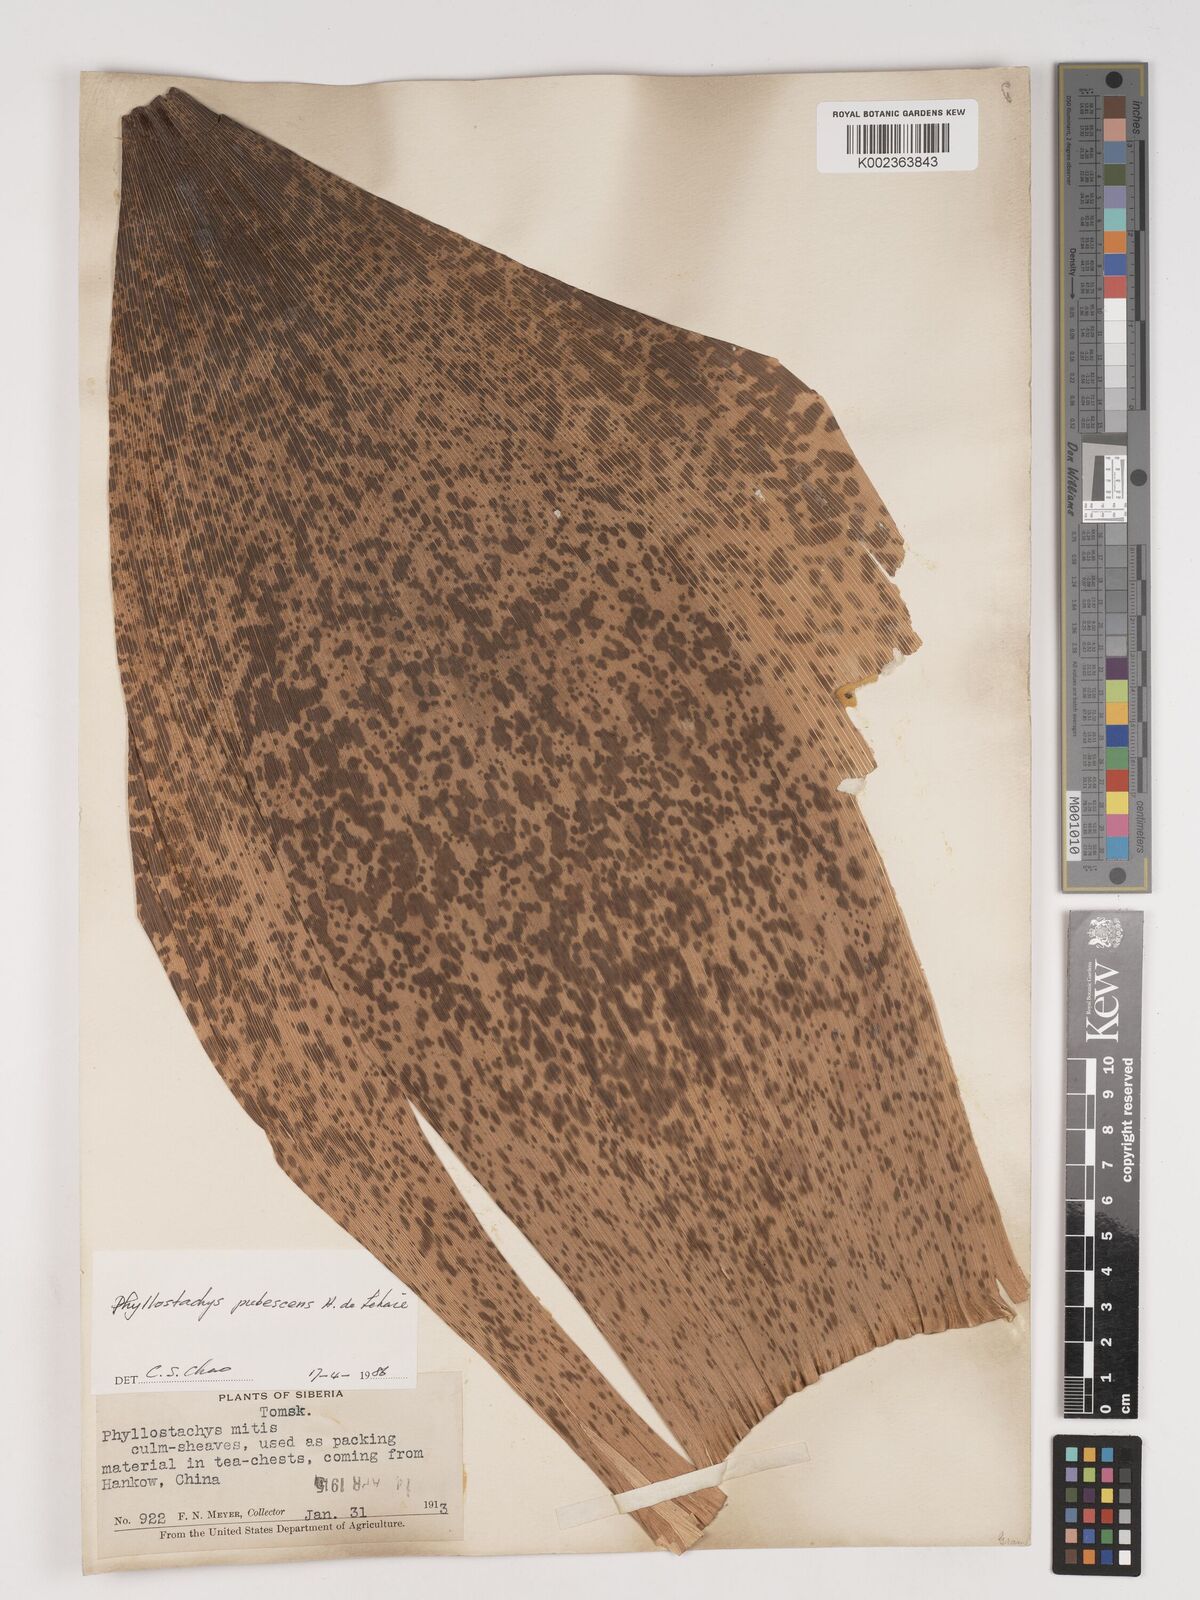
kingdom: Plantae
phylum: Tracheophyta
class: Liliopsida
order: Poales
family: Poaceae
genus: Phyllostachys
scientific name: Phyllostachys edulis
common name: Tortoise shell bamboo
